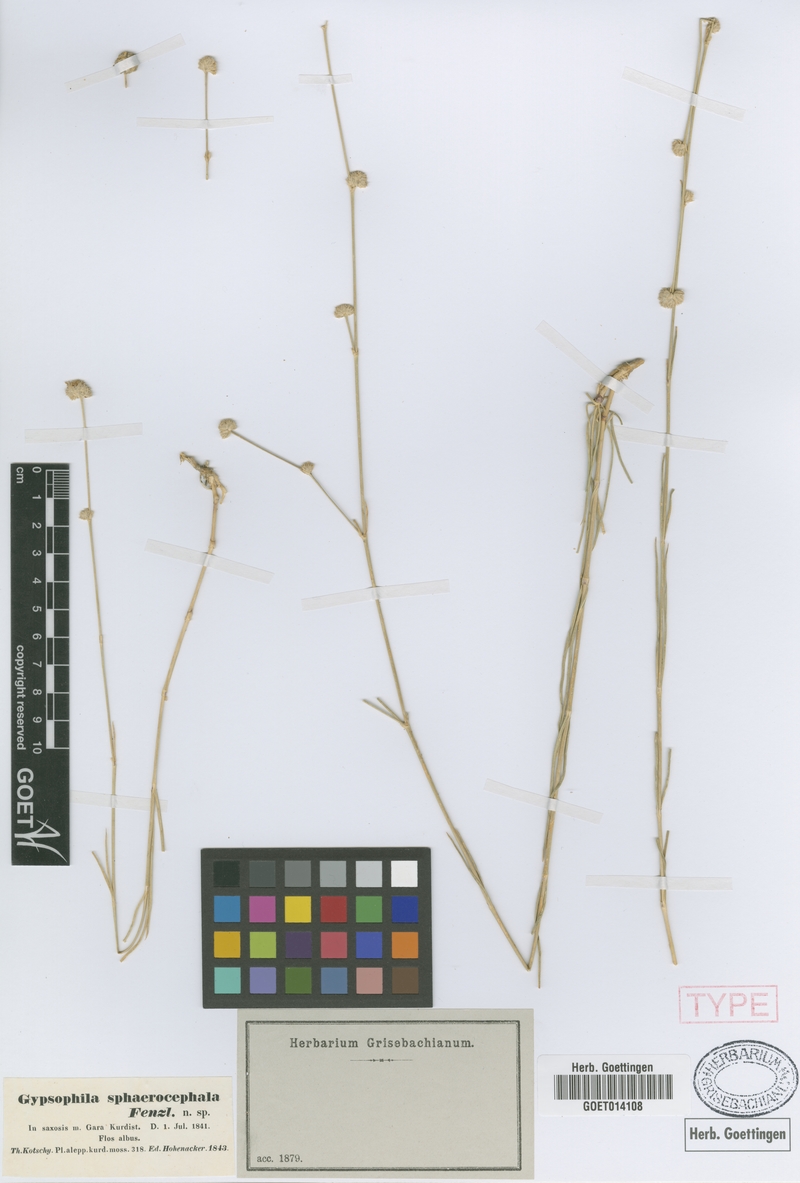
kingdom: Plantae
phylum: Tracheophyta
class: Magnoliopsida
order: Caryophyllales
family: Caryophyllaceae
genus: Gypsophila
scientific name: Gypsophila laricina
